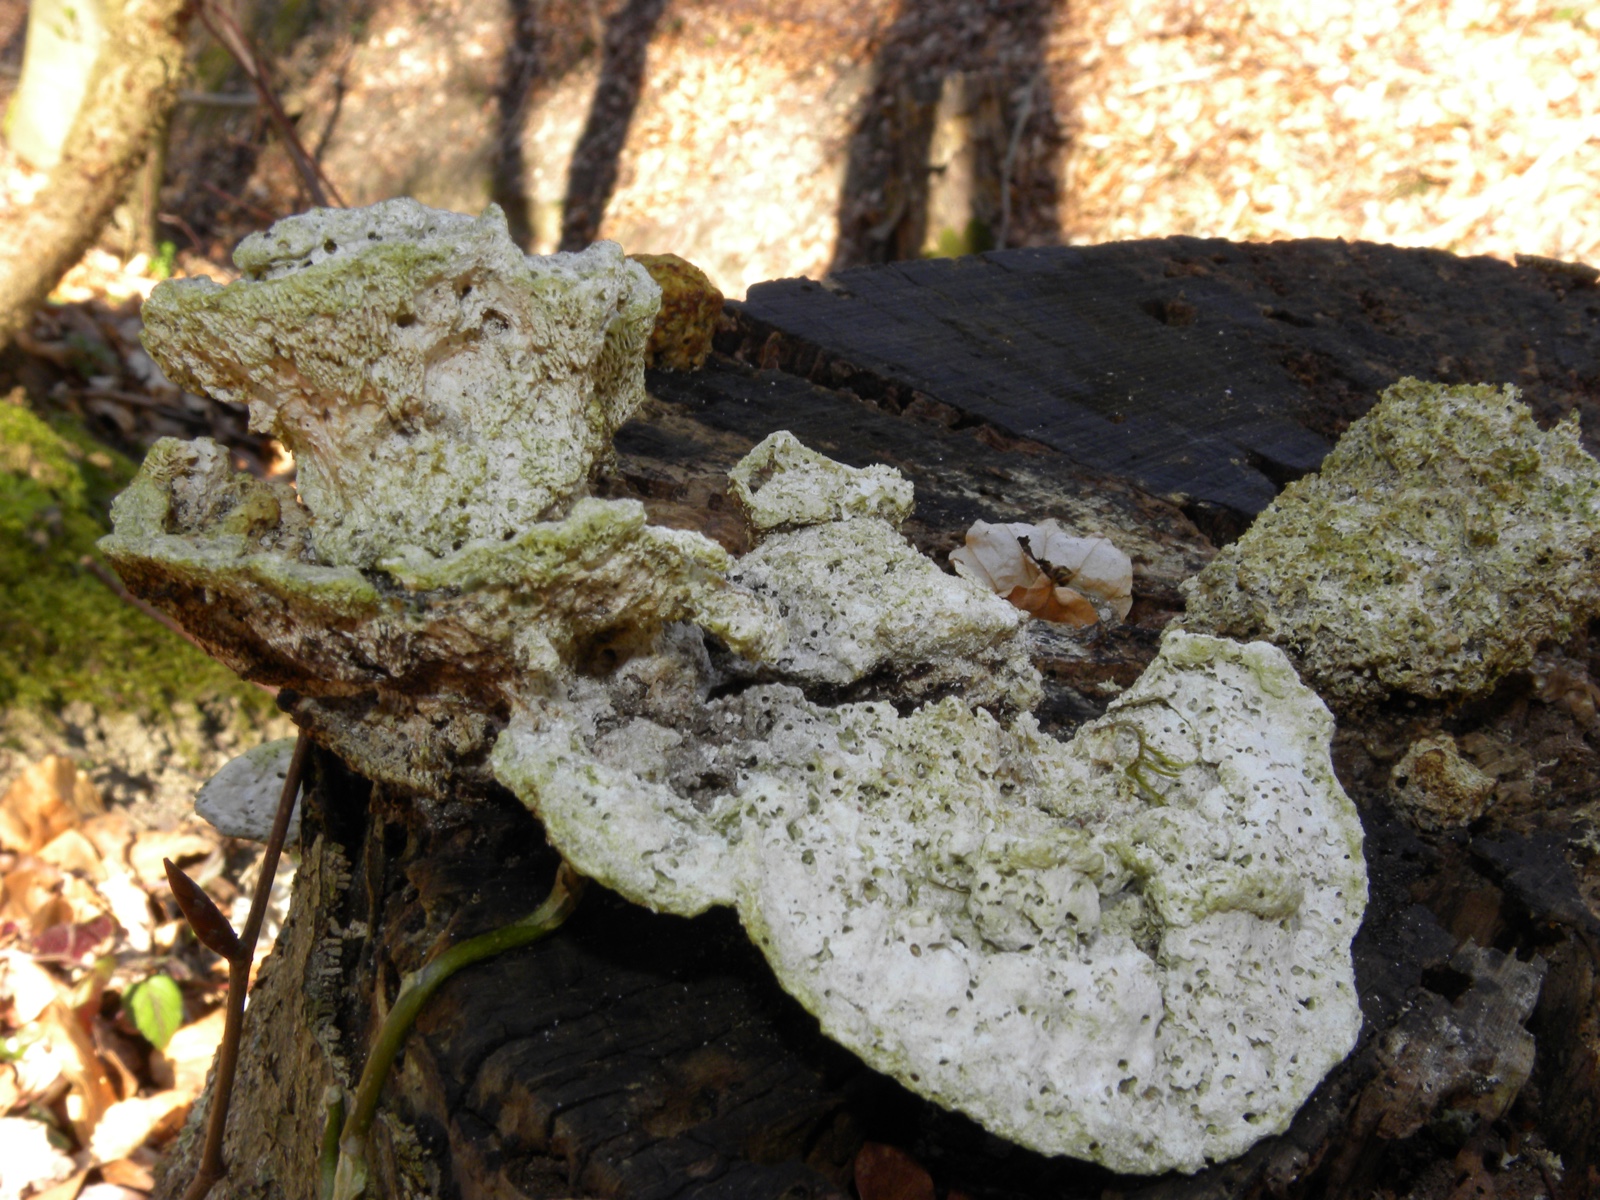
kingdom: Fungi
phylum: Basidiomycota
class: Agaricomycetes
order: Polyporales
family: Polyporaceae
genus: Trametes
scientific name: Trametes gibbosa
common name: puklet læderporesvamp
